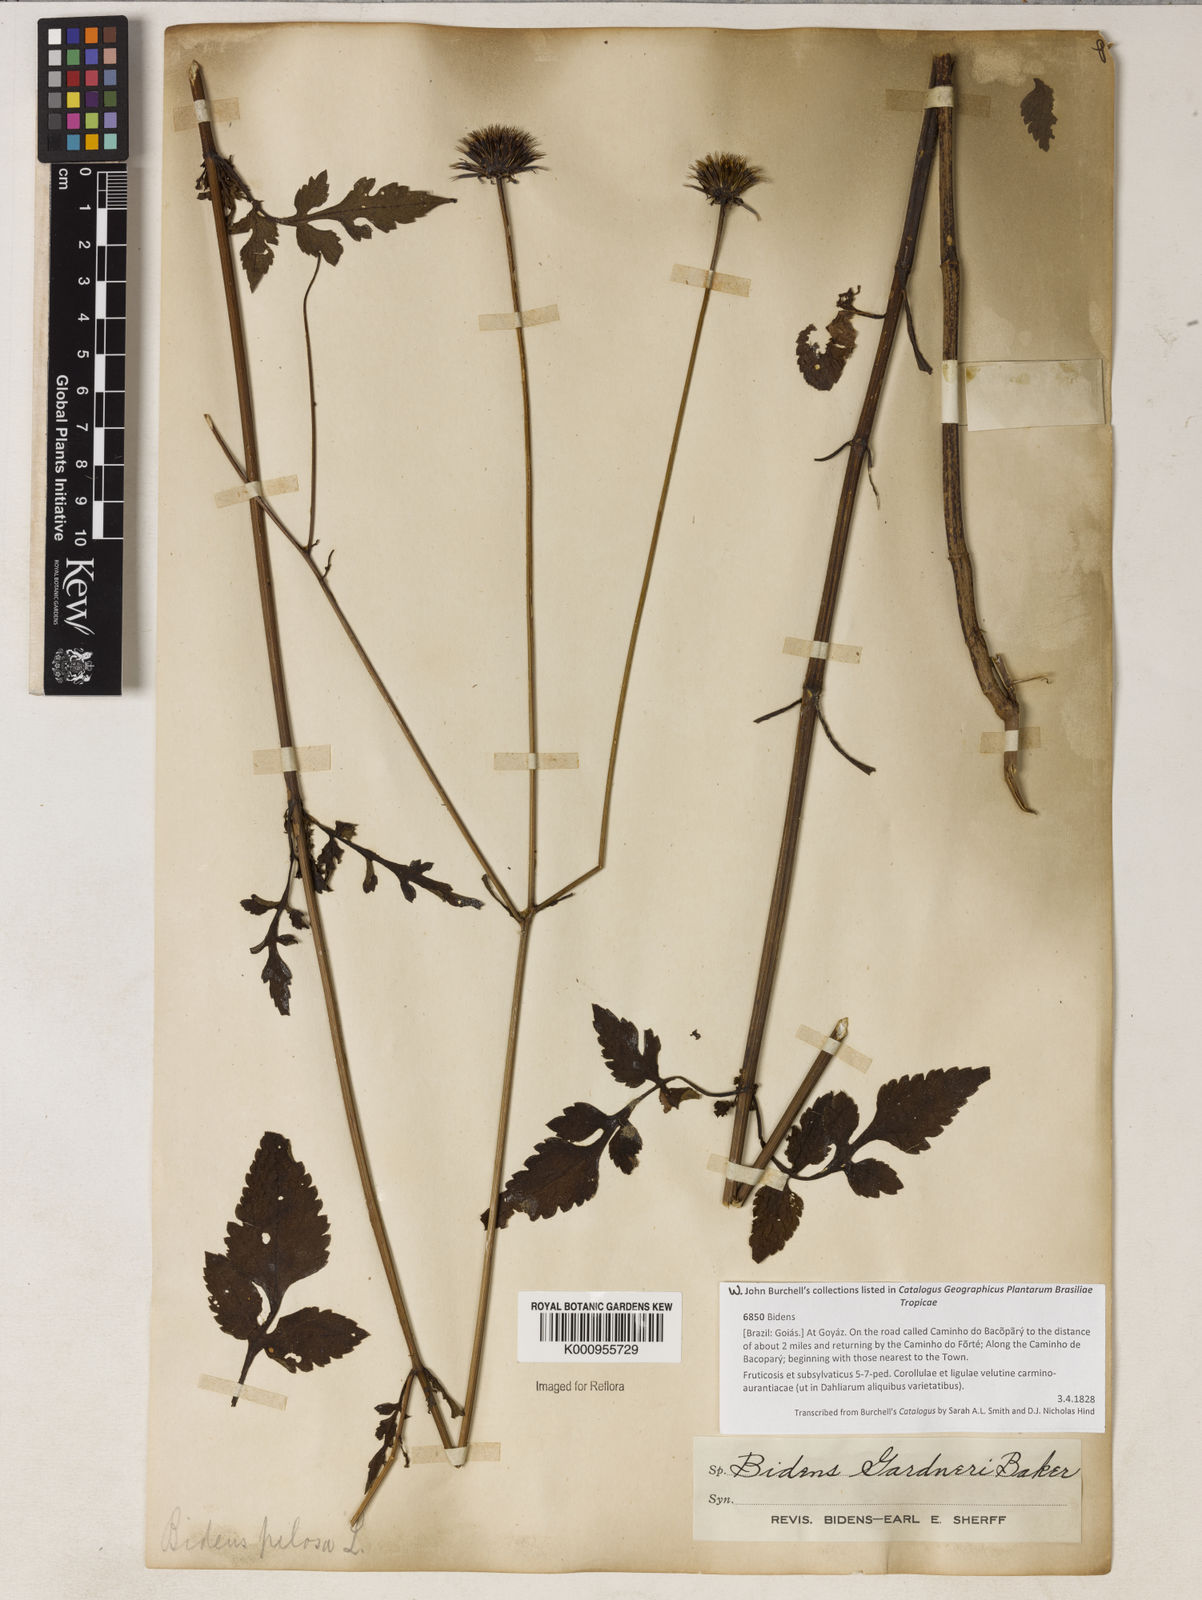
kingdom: Plantae
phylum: Tracheophyta
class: Magnoliopsida
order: Asterales
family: Asteraceae
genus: Bidens
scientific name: Bidens gardneri
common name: Ridge beggartick
